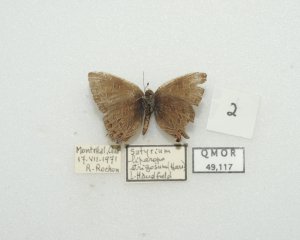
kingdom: Animalia
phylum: Arthropoda
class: Insecta
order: Lepidoptera
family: Lycaenidae
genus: Satyrium
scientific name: Satyrium liparops
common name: Striped Hairstreak
